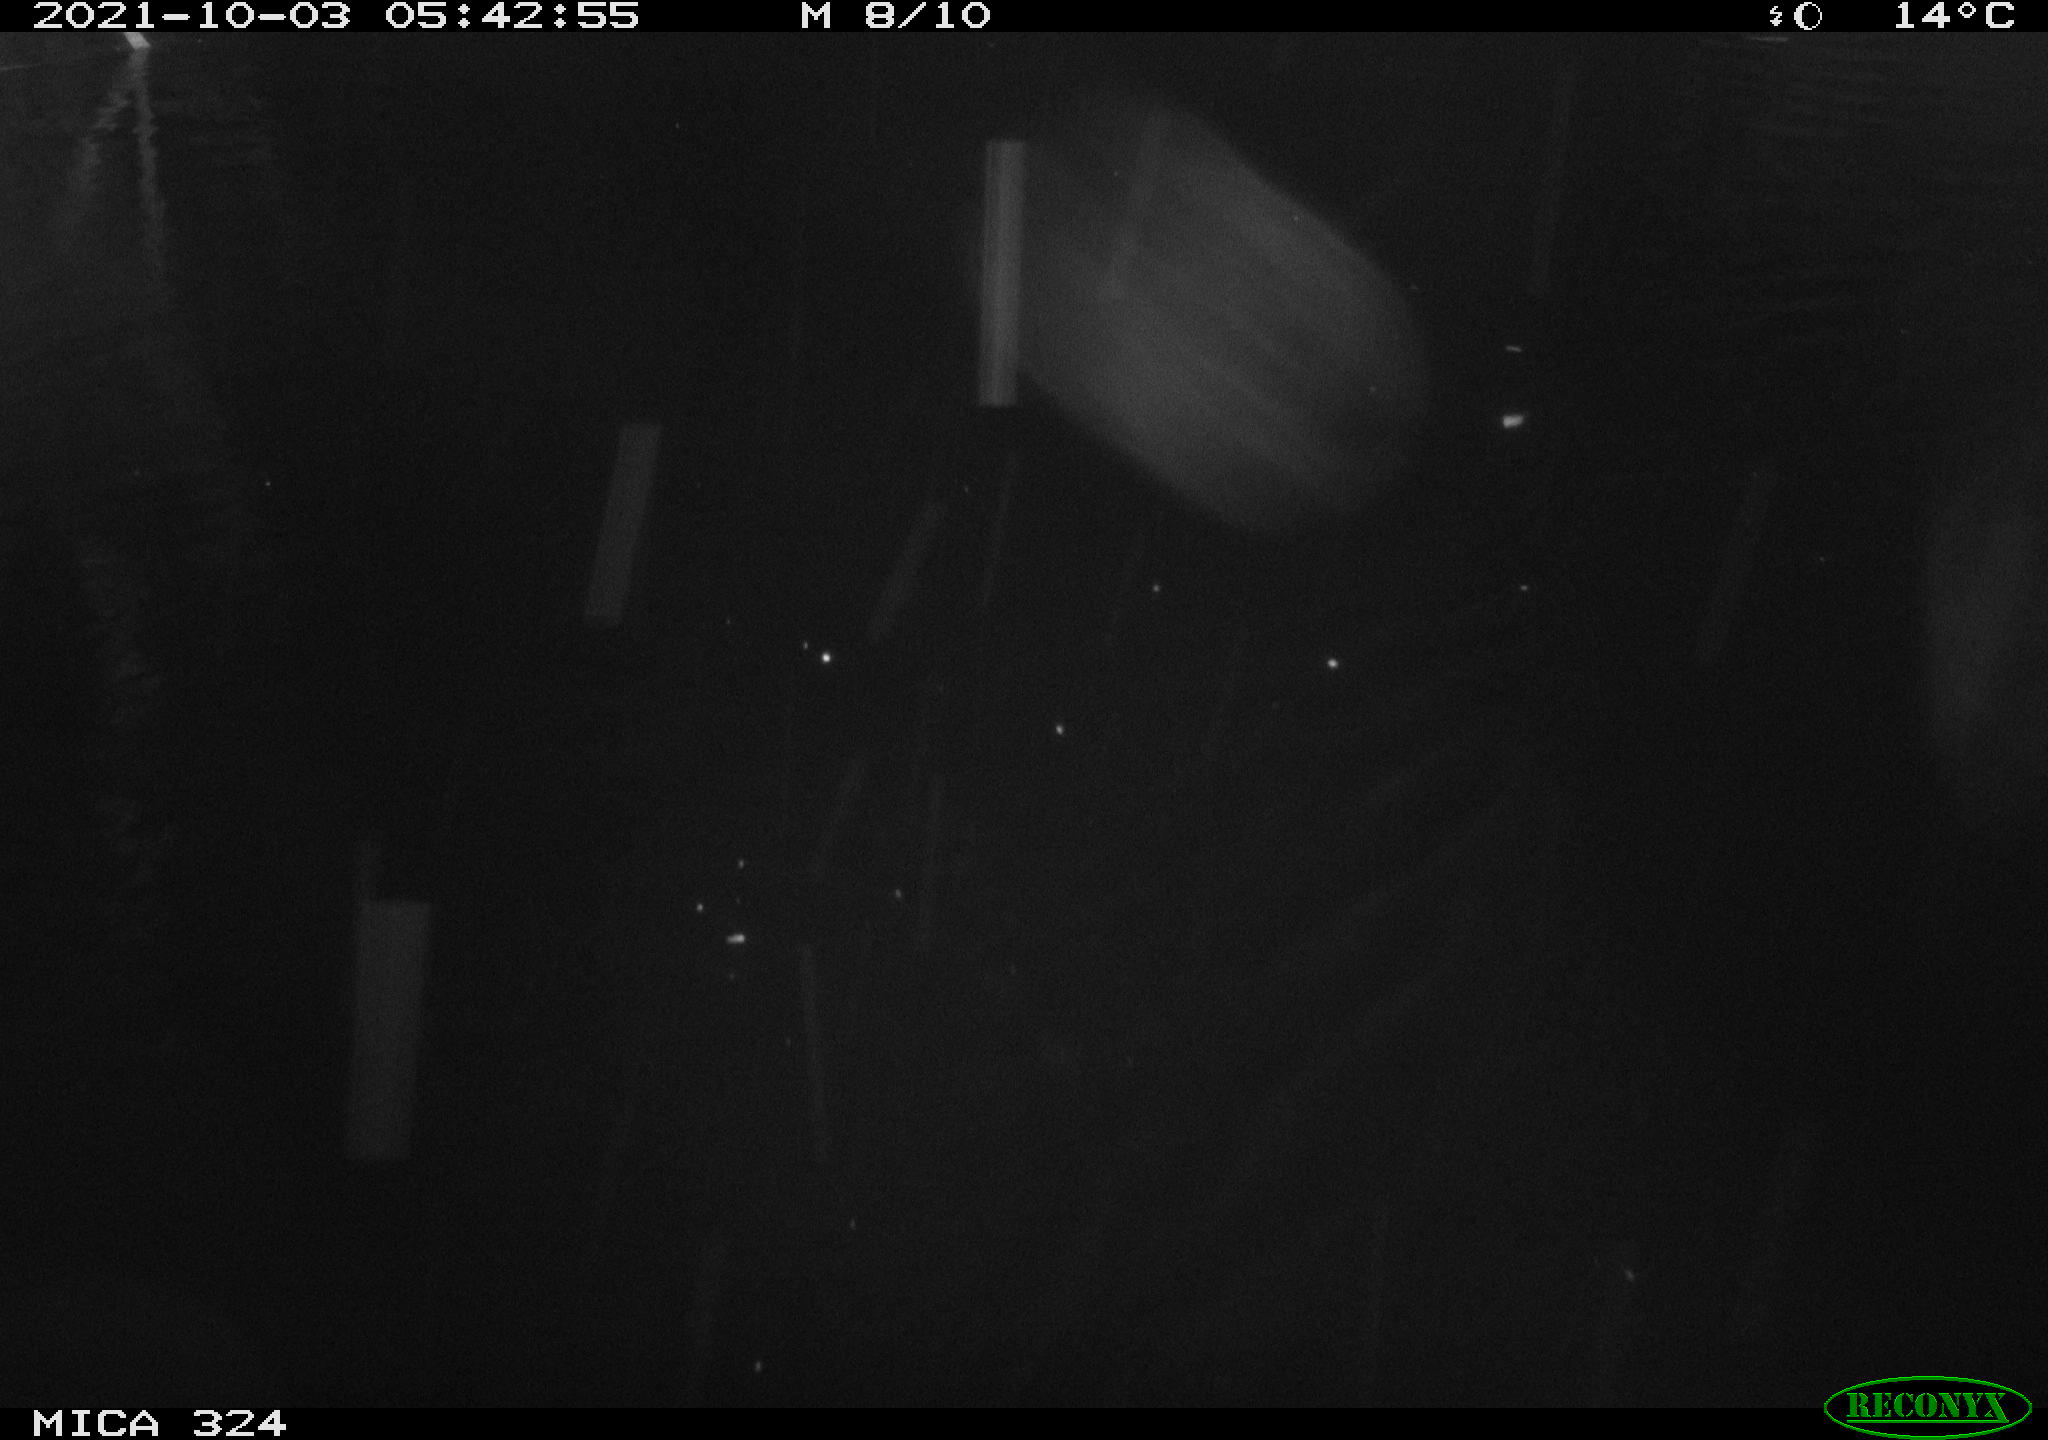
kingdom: Animalia
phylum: Chordata
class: Mammalia
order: Rodentia
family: Cricetidae
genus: Ondatra
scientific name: Ondatra zibethicus
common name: Muskrat
